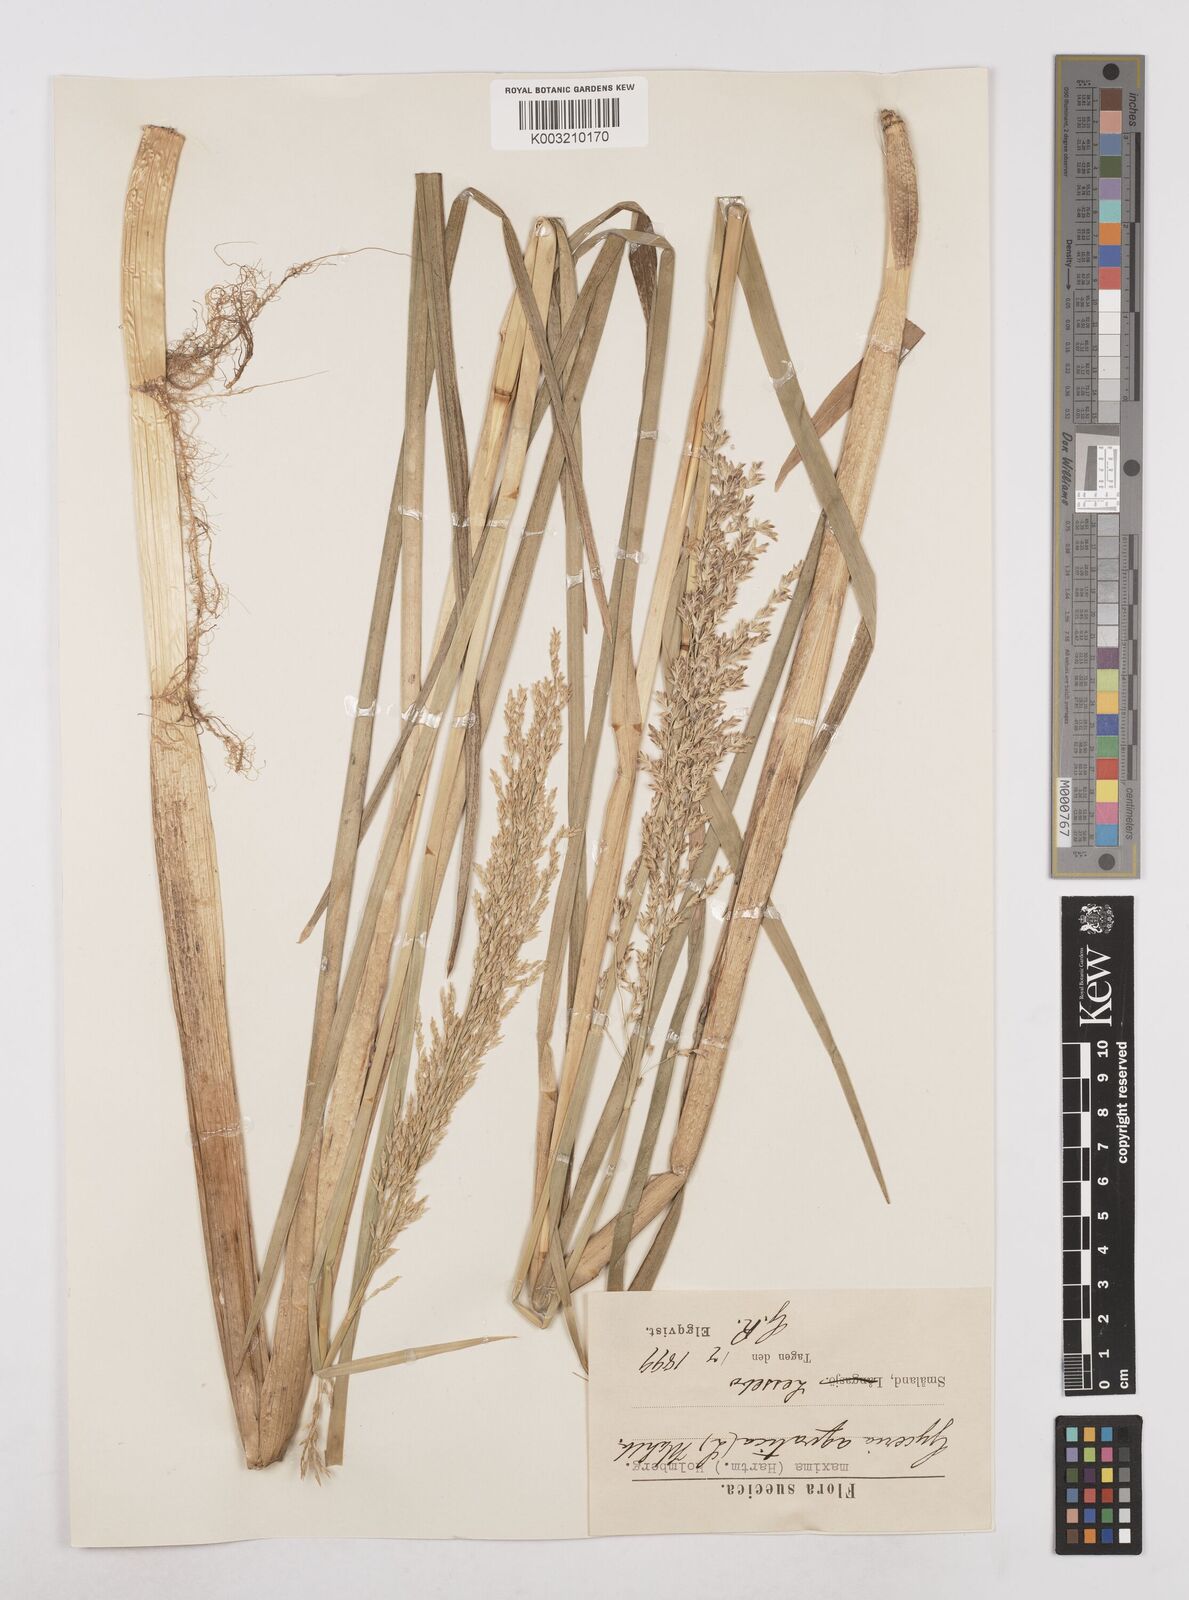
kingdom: Plantae
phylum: Tracheophyta
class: Liliopsida
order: Poales
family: Poaceae
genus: Glyceria
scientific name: Glyceria maxima
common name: Reed mannagrass
